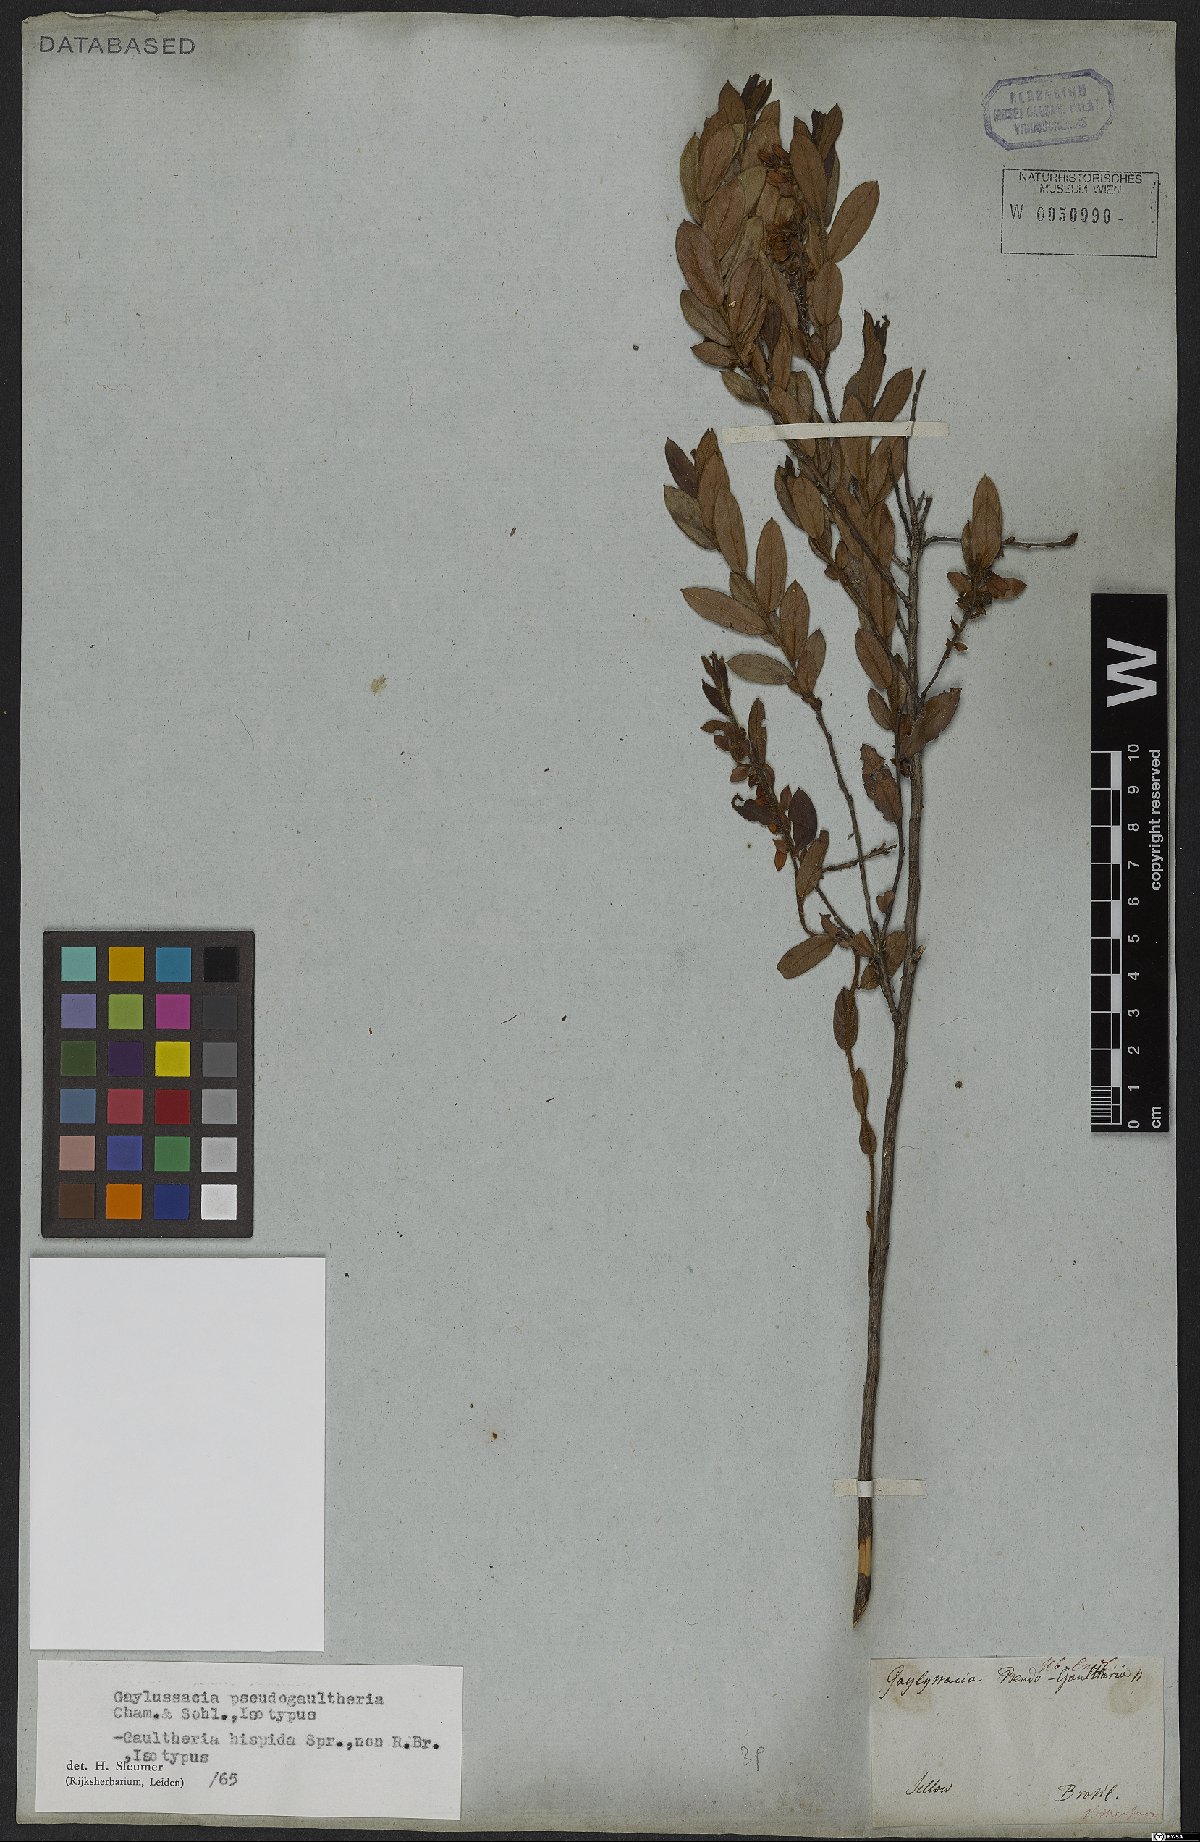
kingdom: Plantae
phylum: Tracheophyta
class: Magnoliopsida
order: Ericales
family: Ericaceae
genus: Gaylussacia
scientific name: Gaylussacia pseudogaultheria
